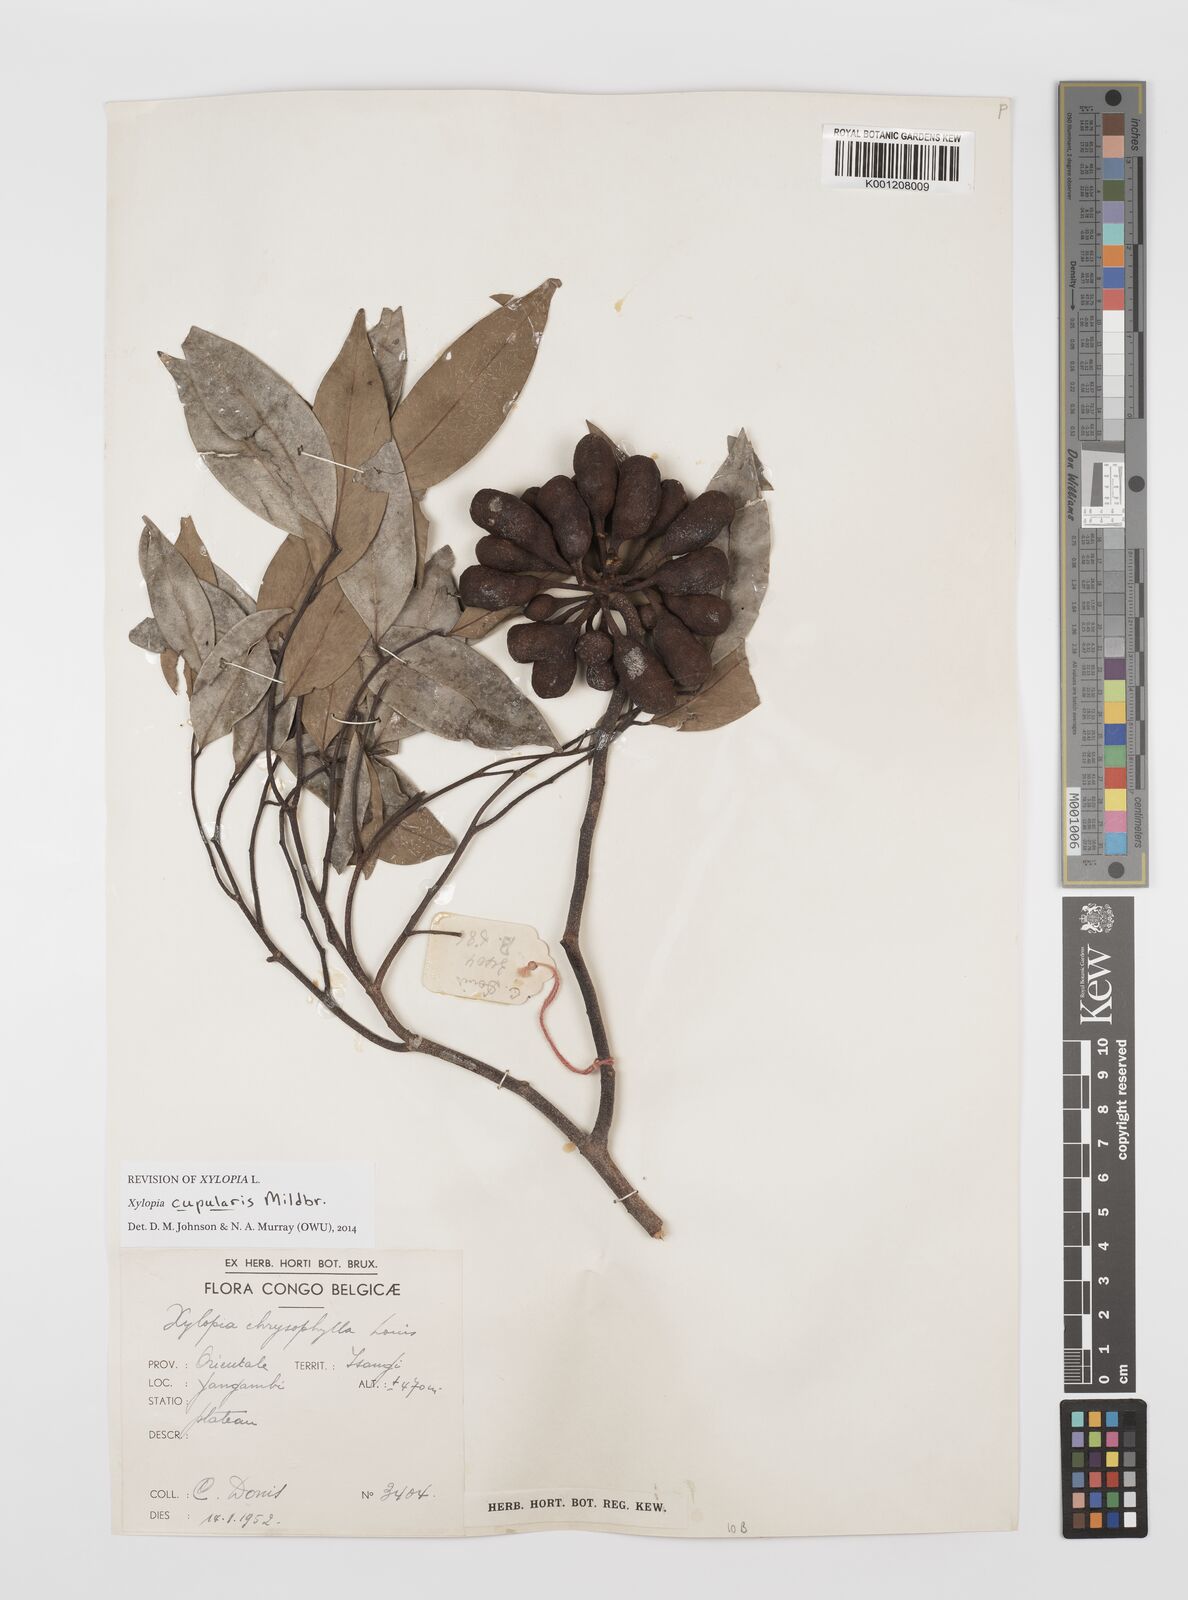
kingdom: Plantae
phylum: Tracheophyta
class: Magnoliopsida
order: Magnoliales
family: Annonaceae
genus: Xylopia
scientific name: Xylopia cupularis
